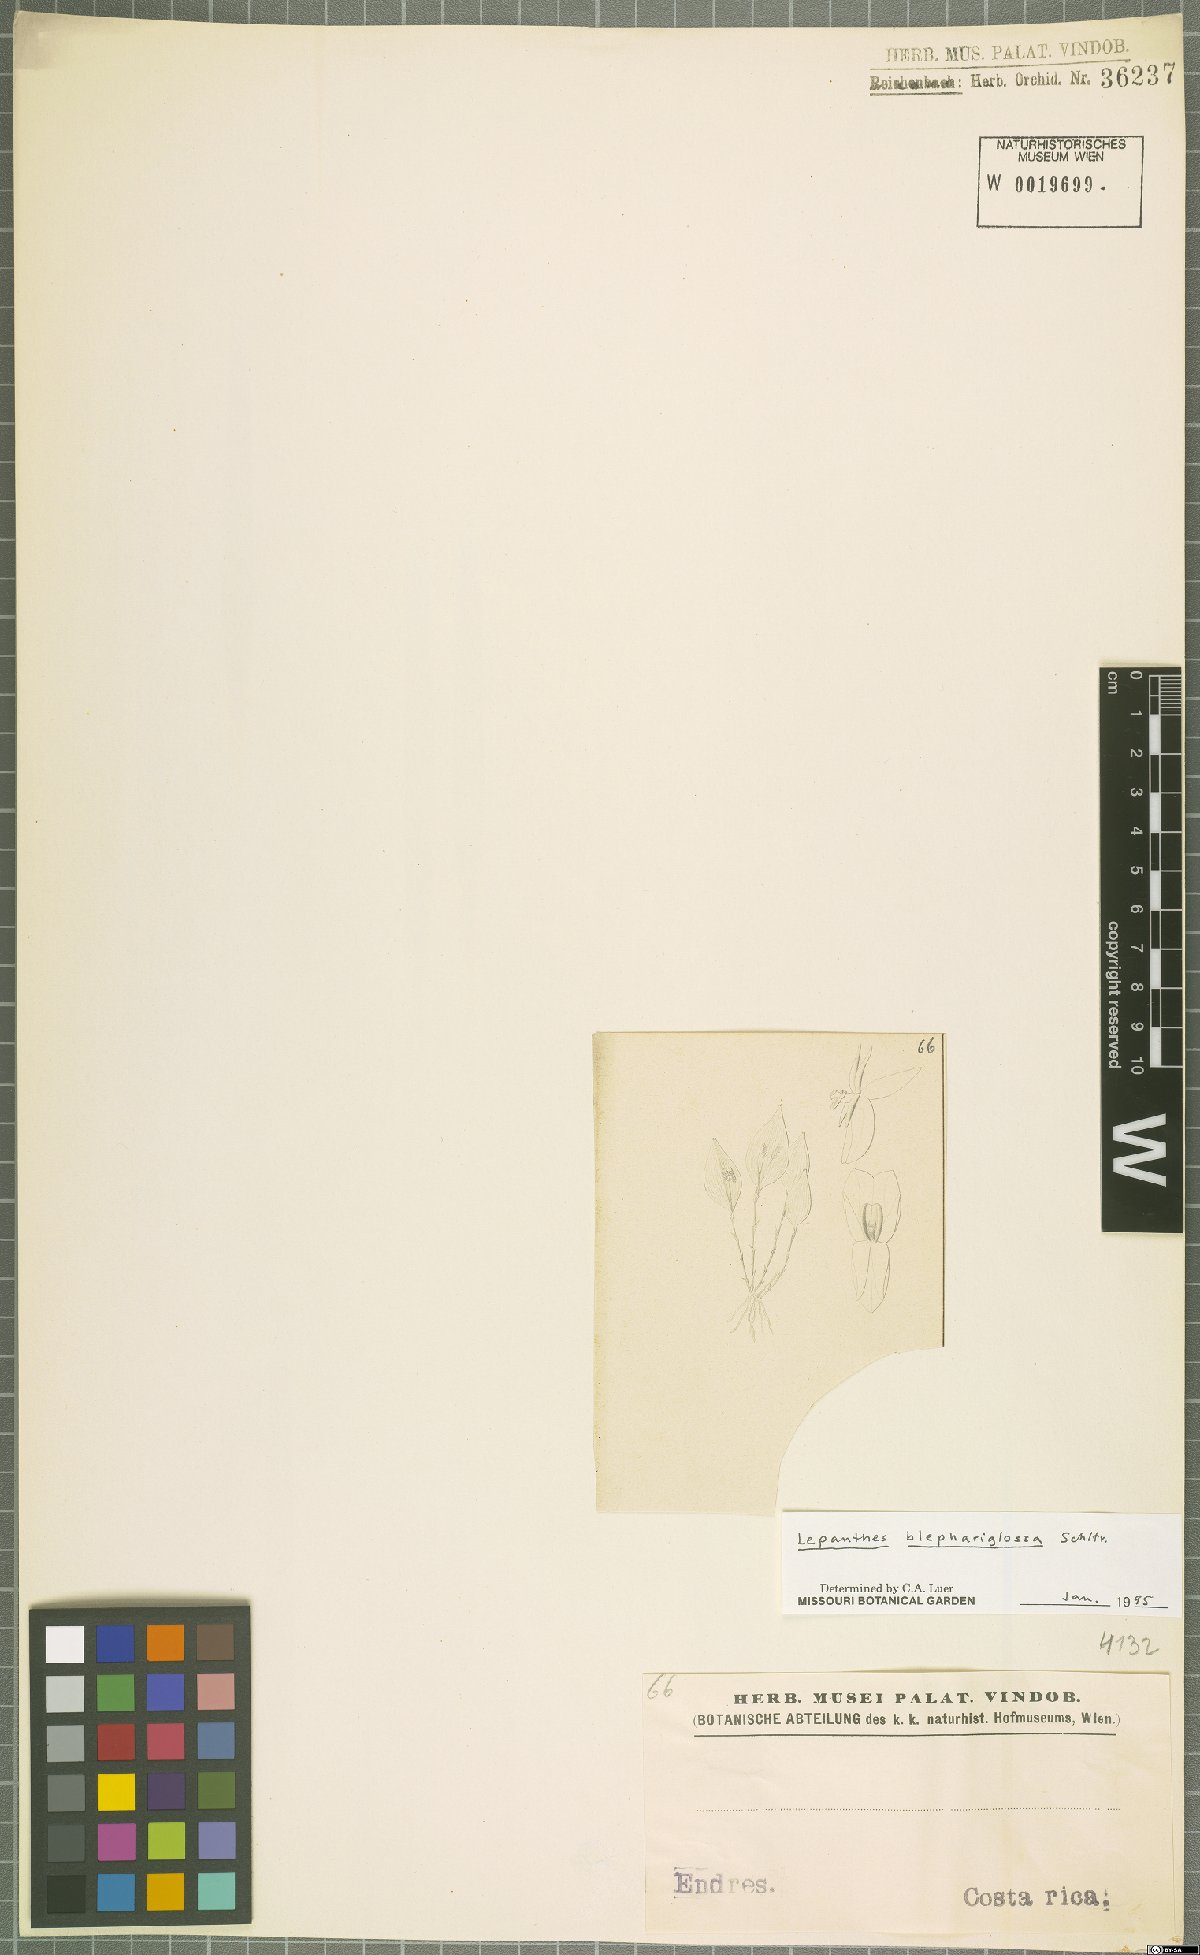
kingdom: Plantae
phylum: Tracheophyta
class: Liliopsida
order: Asparagales
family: Orchidaceae
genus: Lepanthes
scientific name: Lepanthes blephariglossa
